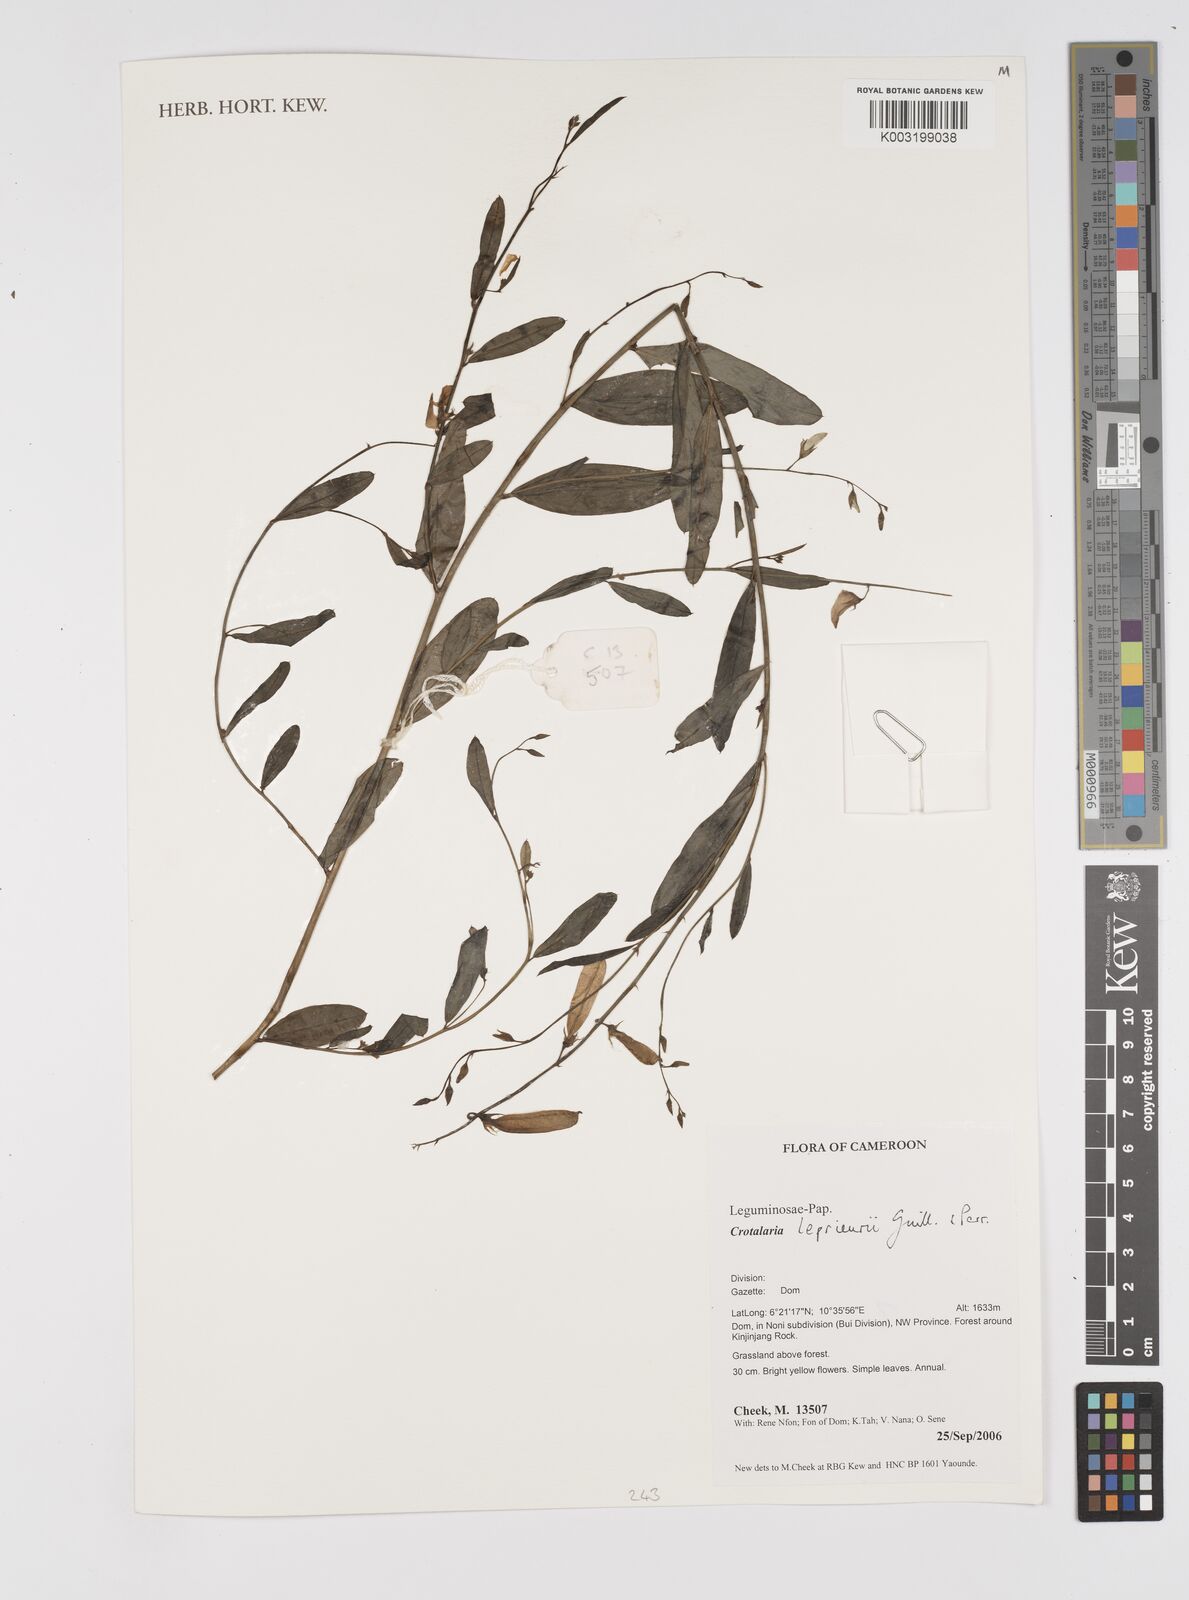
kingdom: Plantae
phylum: Tracheophyta
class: Magnoliopsida
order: Fabales
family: Fabaceae
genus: Crotalaria
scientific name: Crotalaria leprieurii
